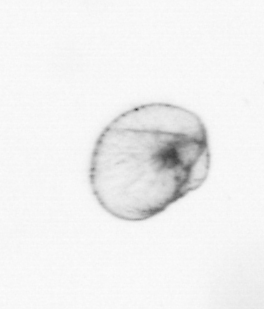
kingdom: Chromista
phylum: Myzozoa
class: Dinophyceae
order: Noctilucales
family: Noctilucaceae
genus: Noctiluca
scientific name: Noctiluca scintillans
